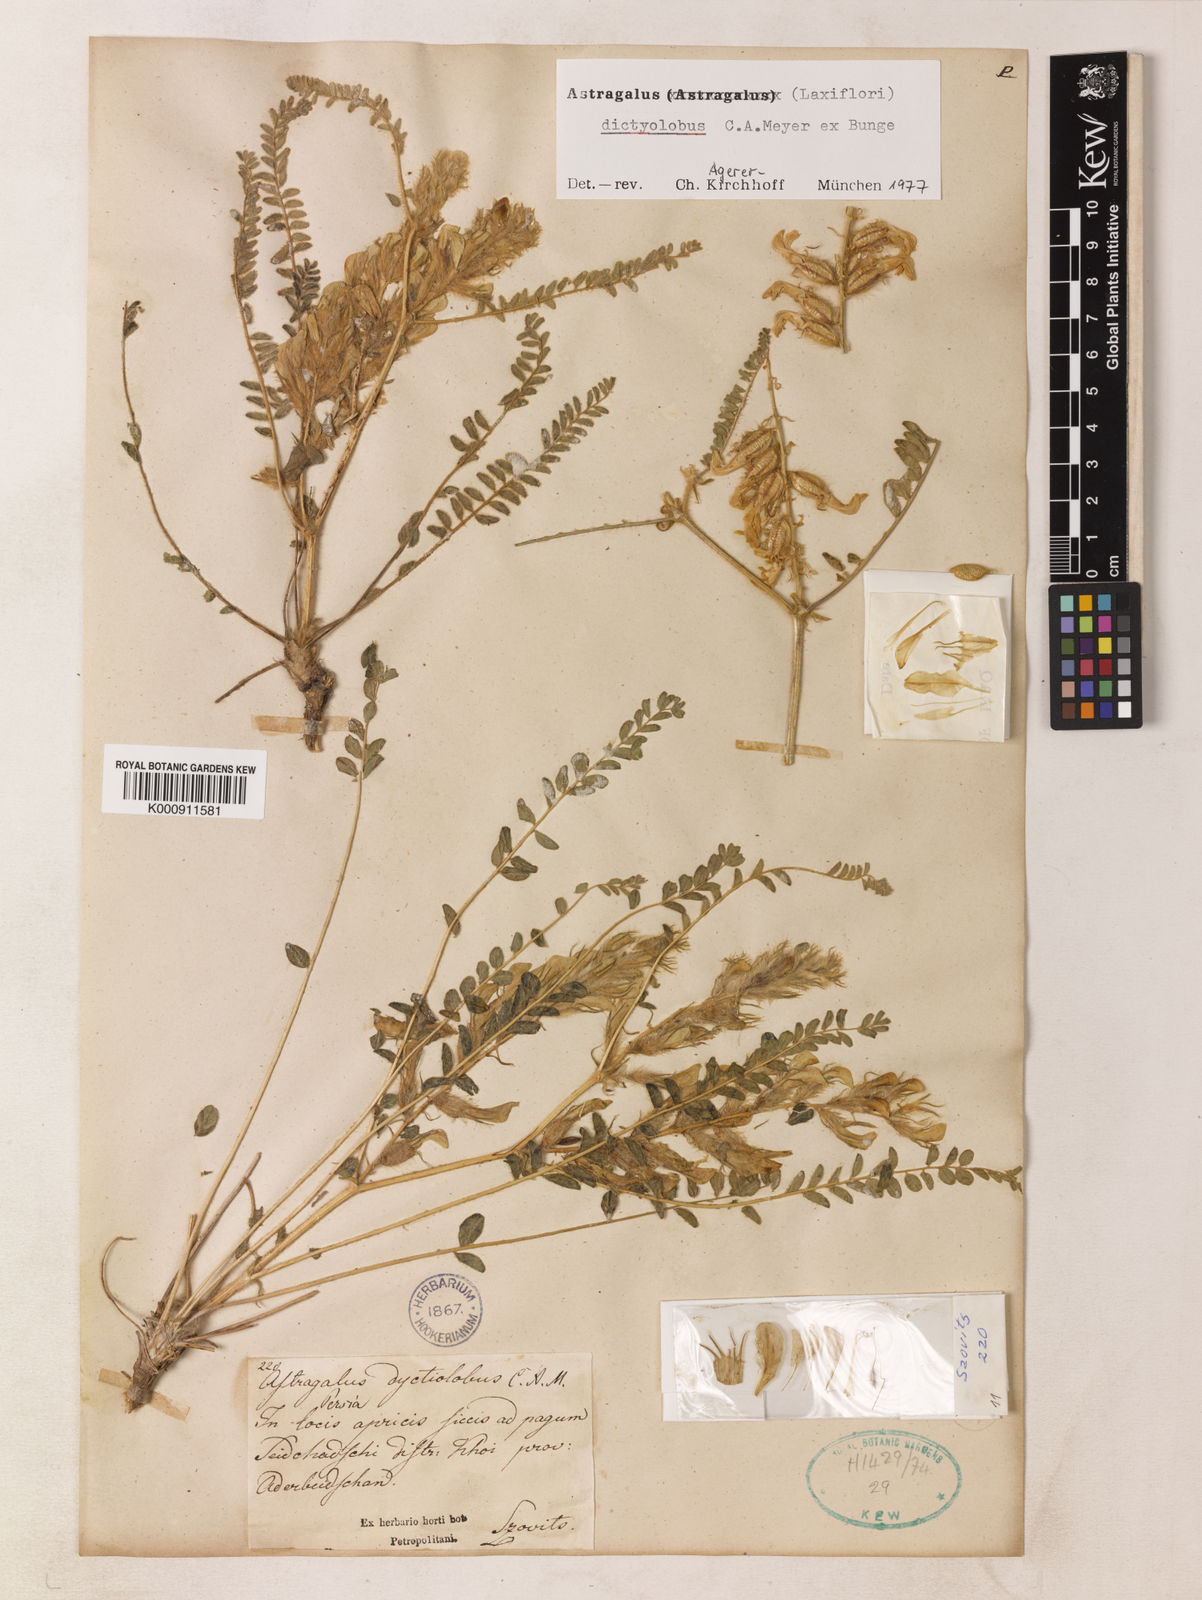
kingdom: Plantae
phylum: Tracheophyta
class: Magnoliopsida
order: Fabales
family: Fabaceae
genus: Astragalus
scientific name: Astragalus dictyolobus
